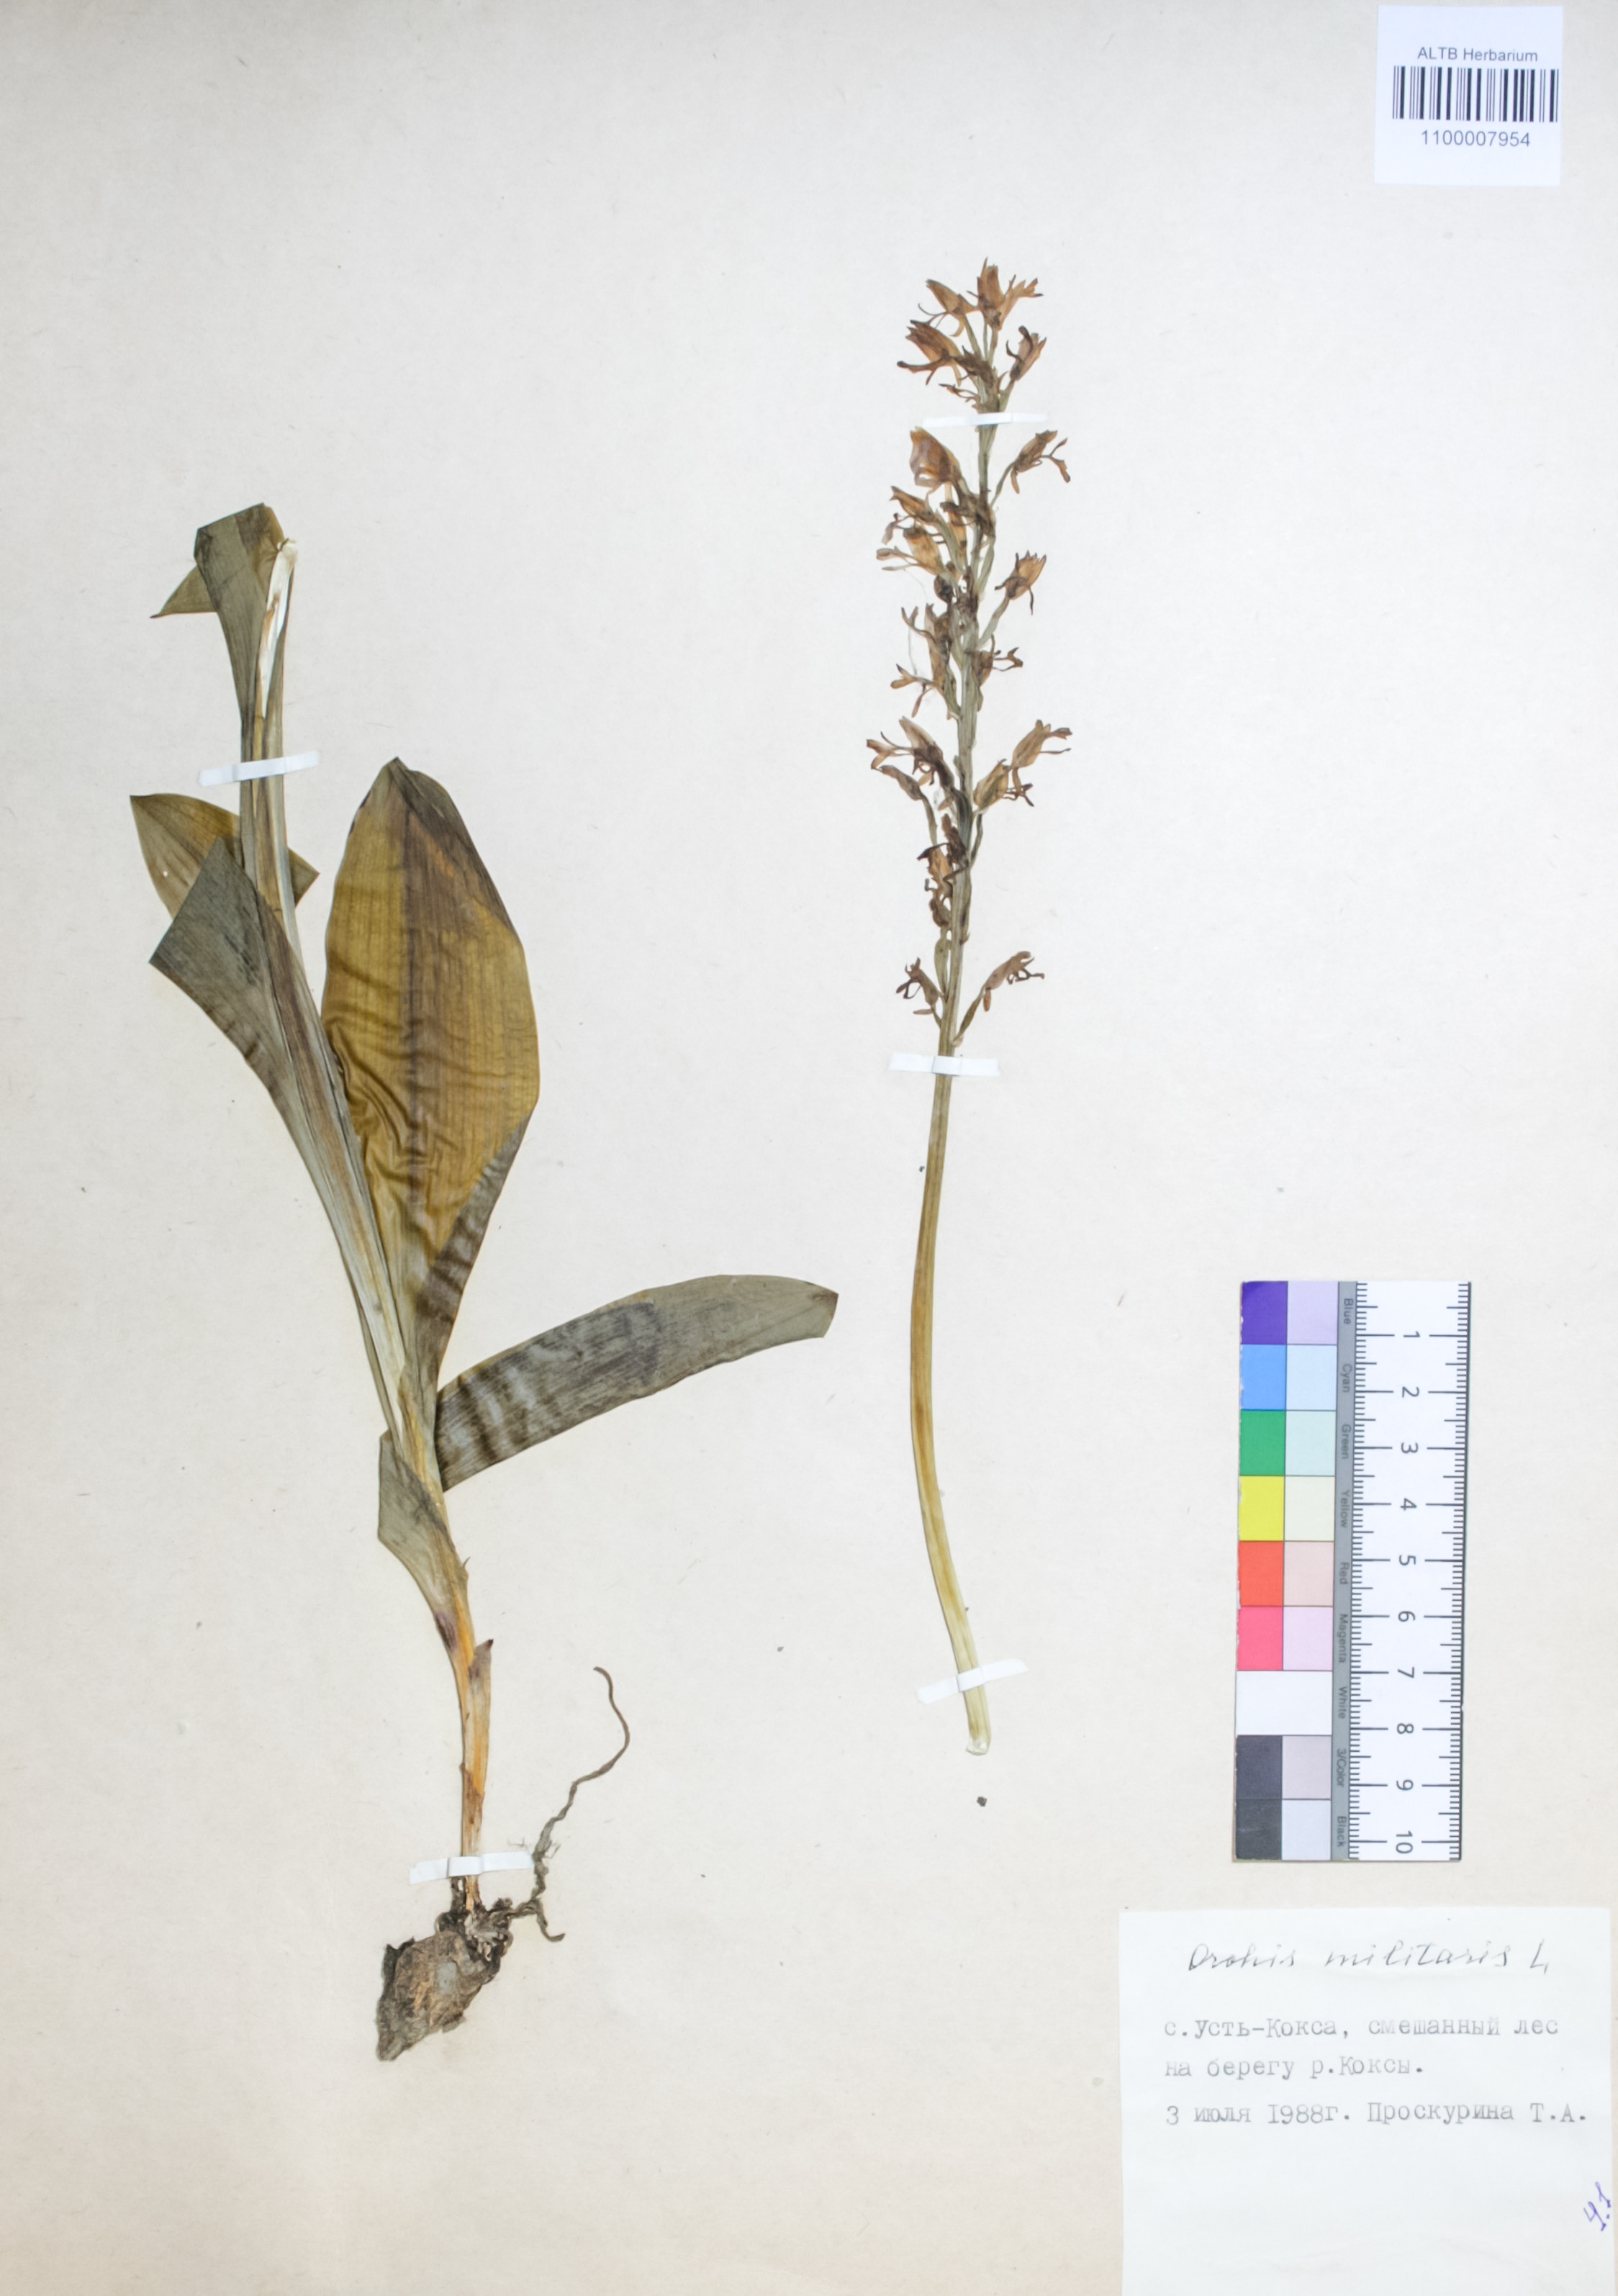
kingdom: Plantae
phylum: Tracheophyta
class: Liliopsida
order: Asparagales
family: Orchidaceae
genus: Orchis
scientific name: Orchis militaris
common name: Military orchid
